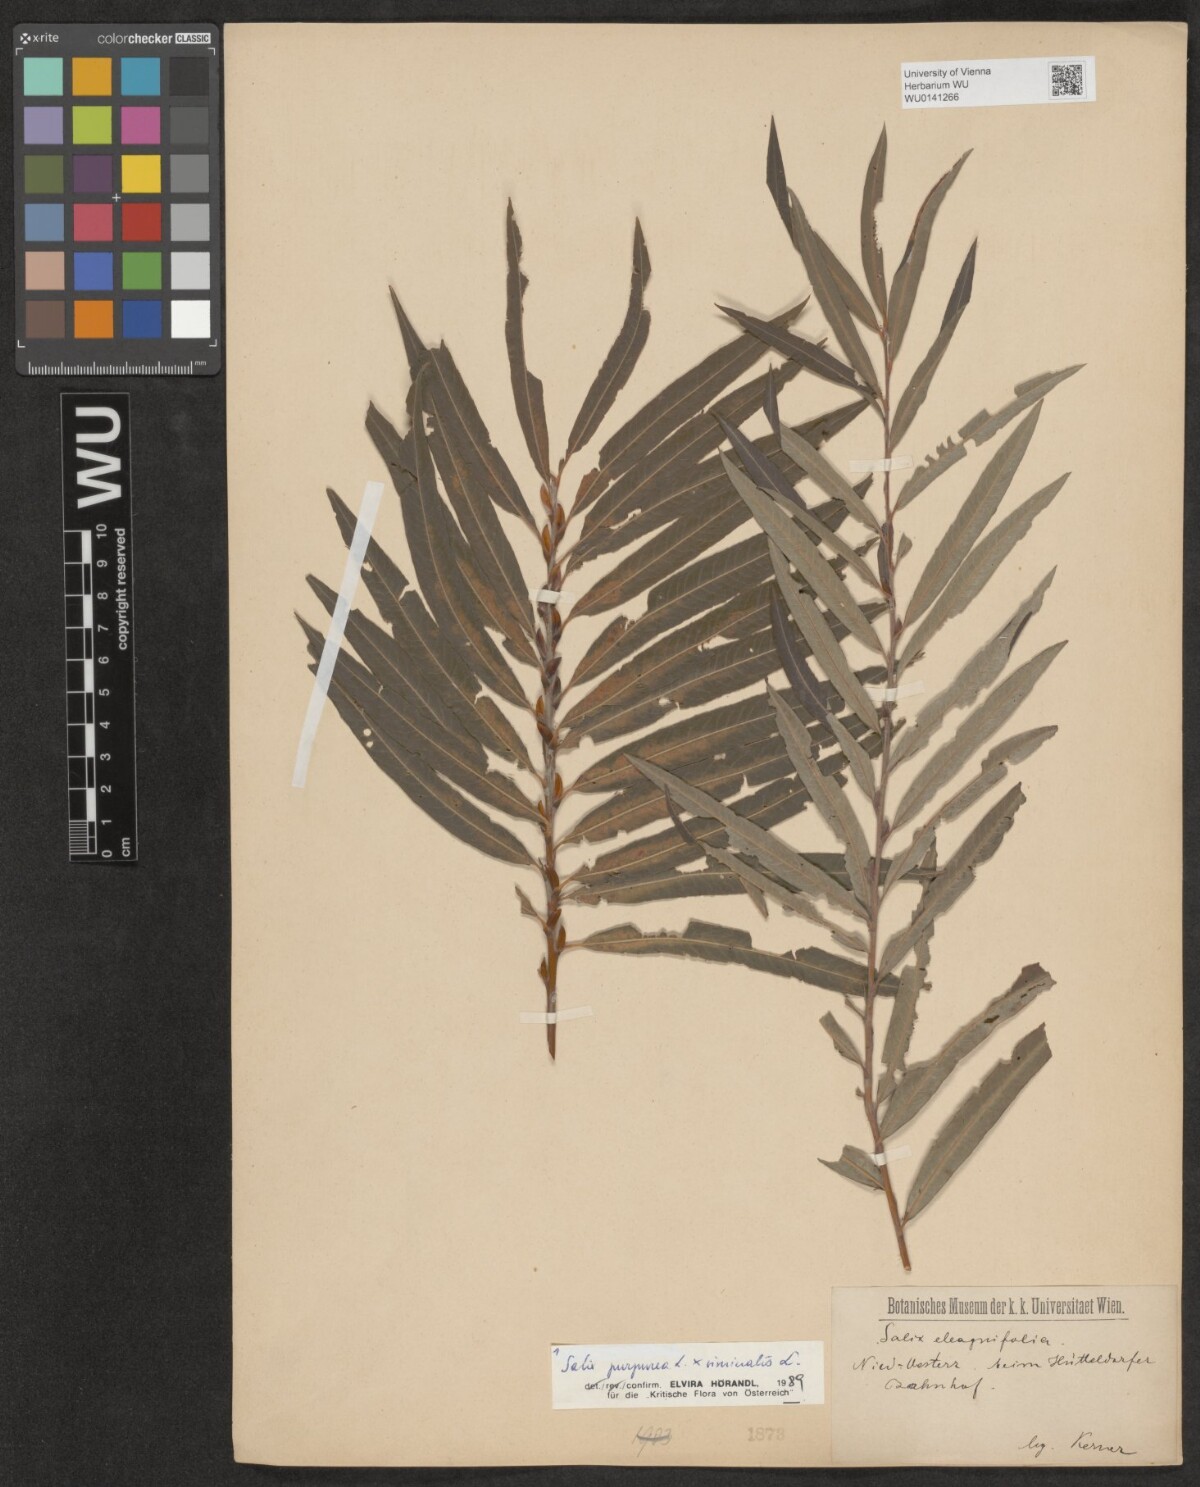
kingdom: Plantae
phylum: Tracheophyta
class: Magnoliopsida
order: Malpighiales
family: Salicaceae
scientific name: Salicaceae
